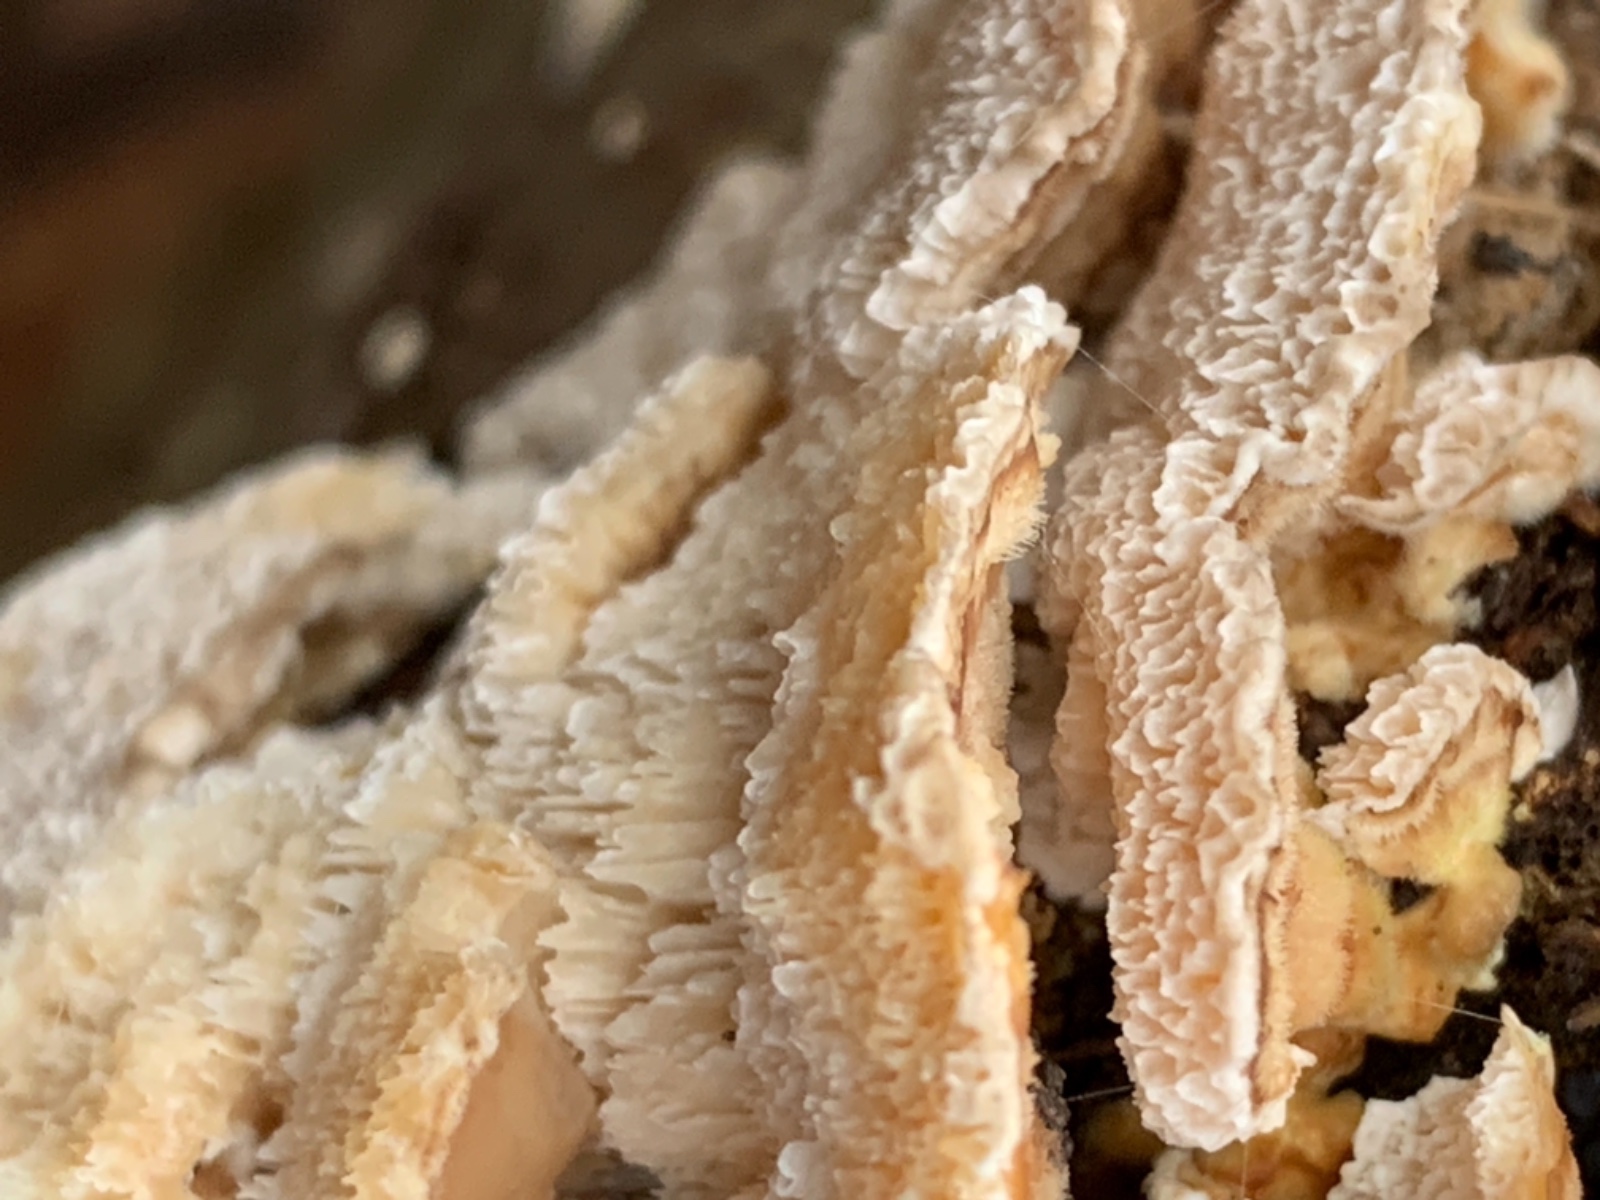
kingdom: Fungi
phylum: Basidiomycota
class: Agaricomycetes
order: Polyporales
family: Phanerochaetaceae
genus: Bjerkandera
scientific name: Bjerkandera fumosa
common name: grågul sodporesvamp
